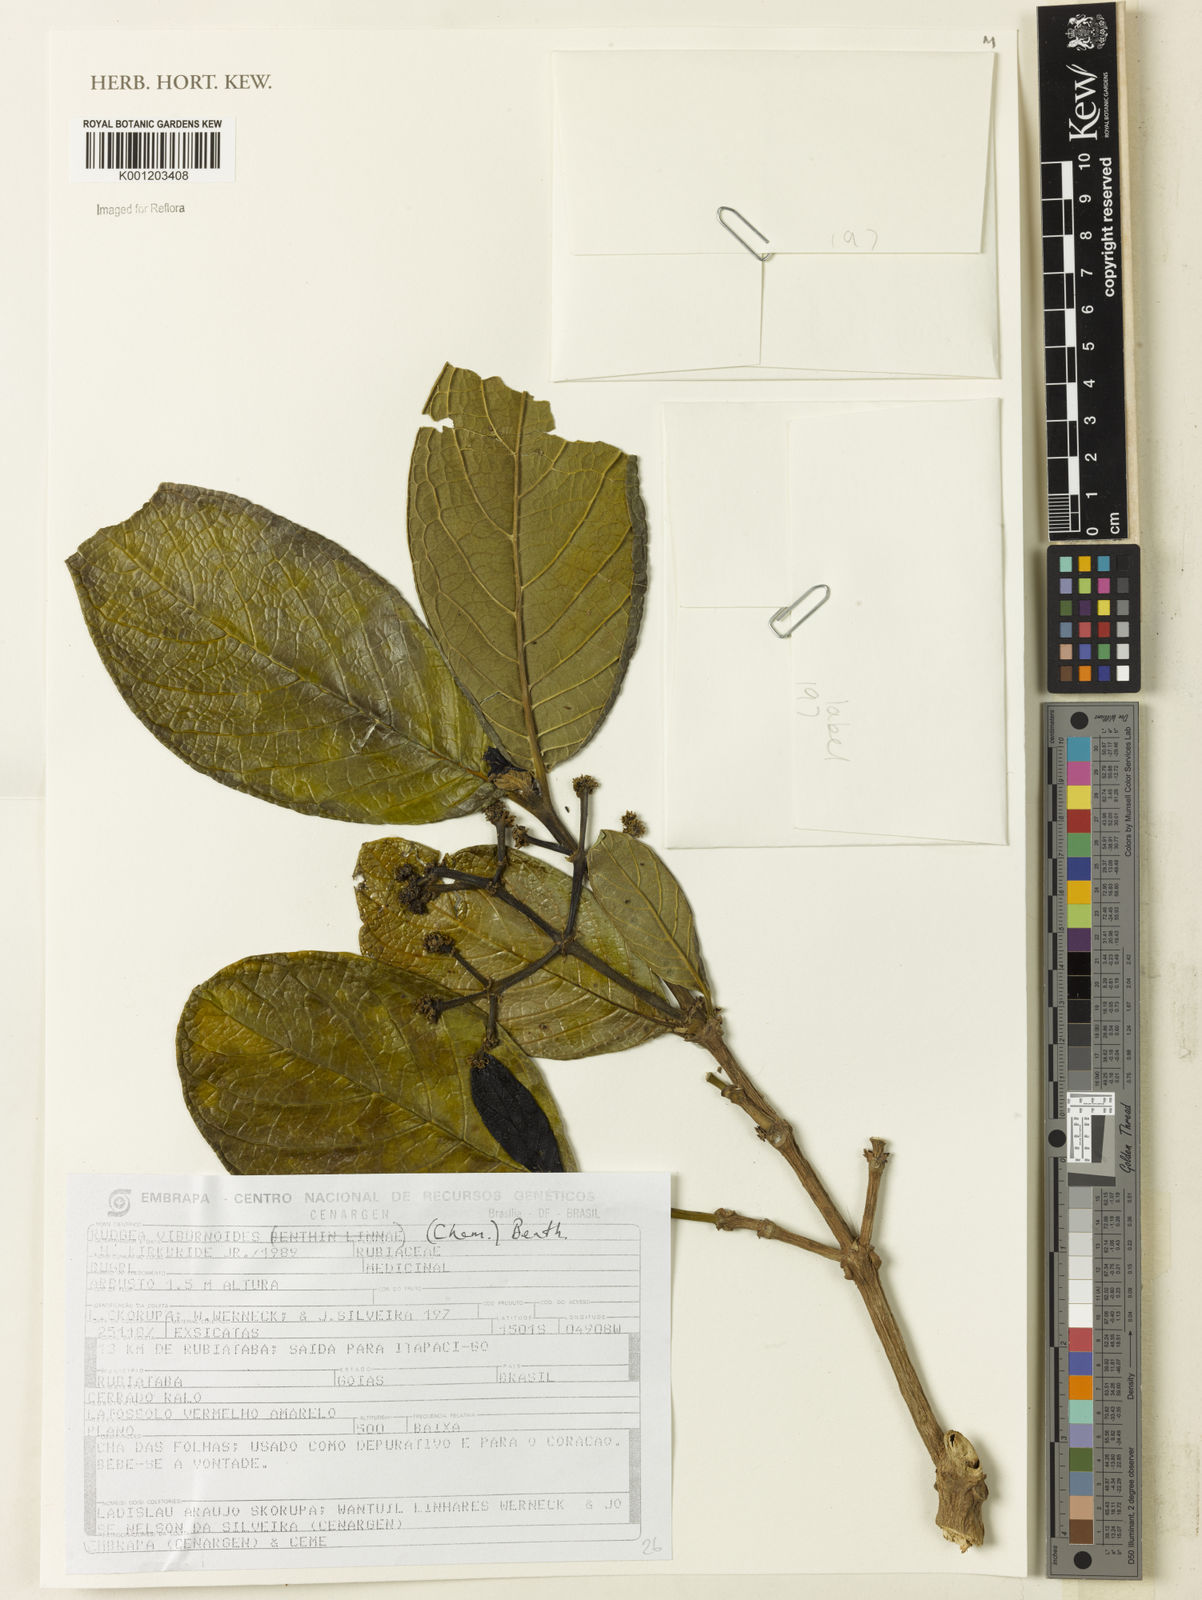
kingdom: Plantae
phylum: Tracheophyta
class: Magnoliopsida
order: Gentianales
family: Rubiaceae
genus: Rudgea
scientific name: Rudgea viburnoides
